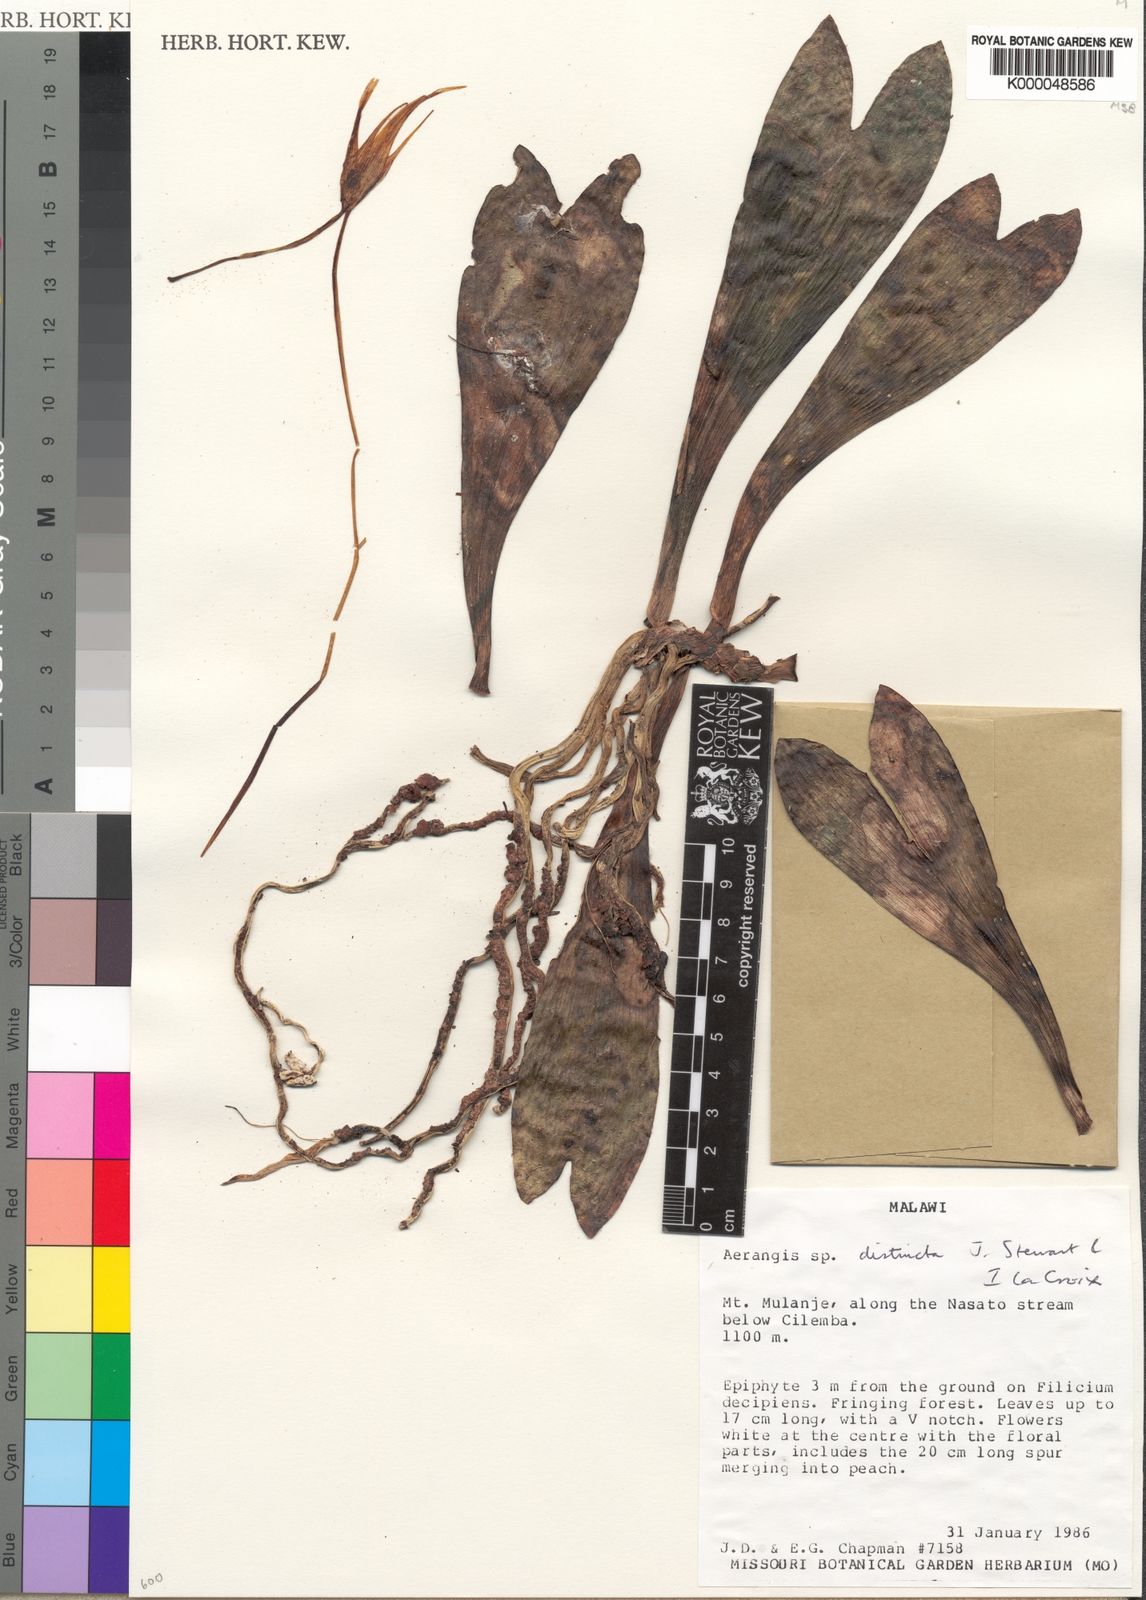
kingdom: Plantae
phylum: Tracheophyta
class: Liliopsida
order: Asparagales
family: Orchidaceae
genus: Aerangis
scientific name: Aerangis distincta
